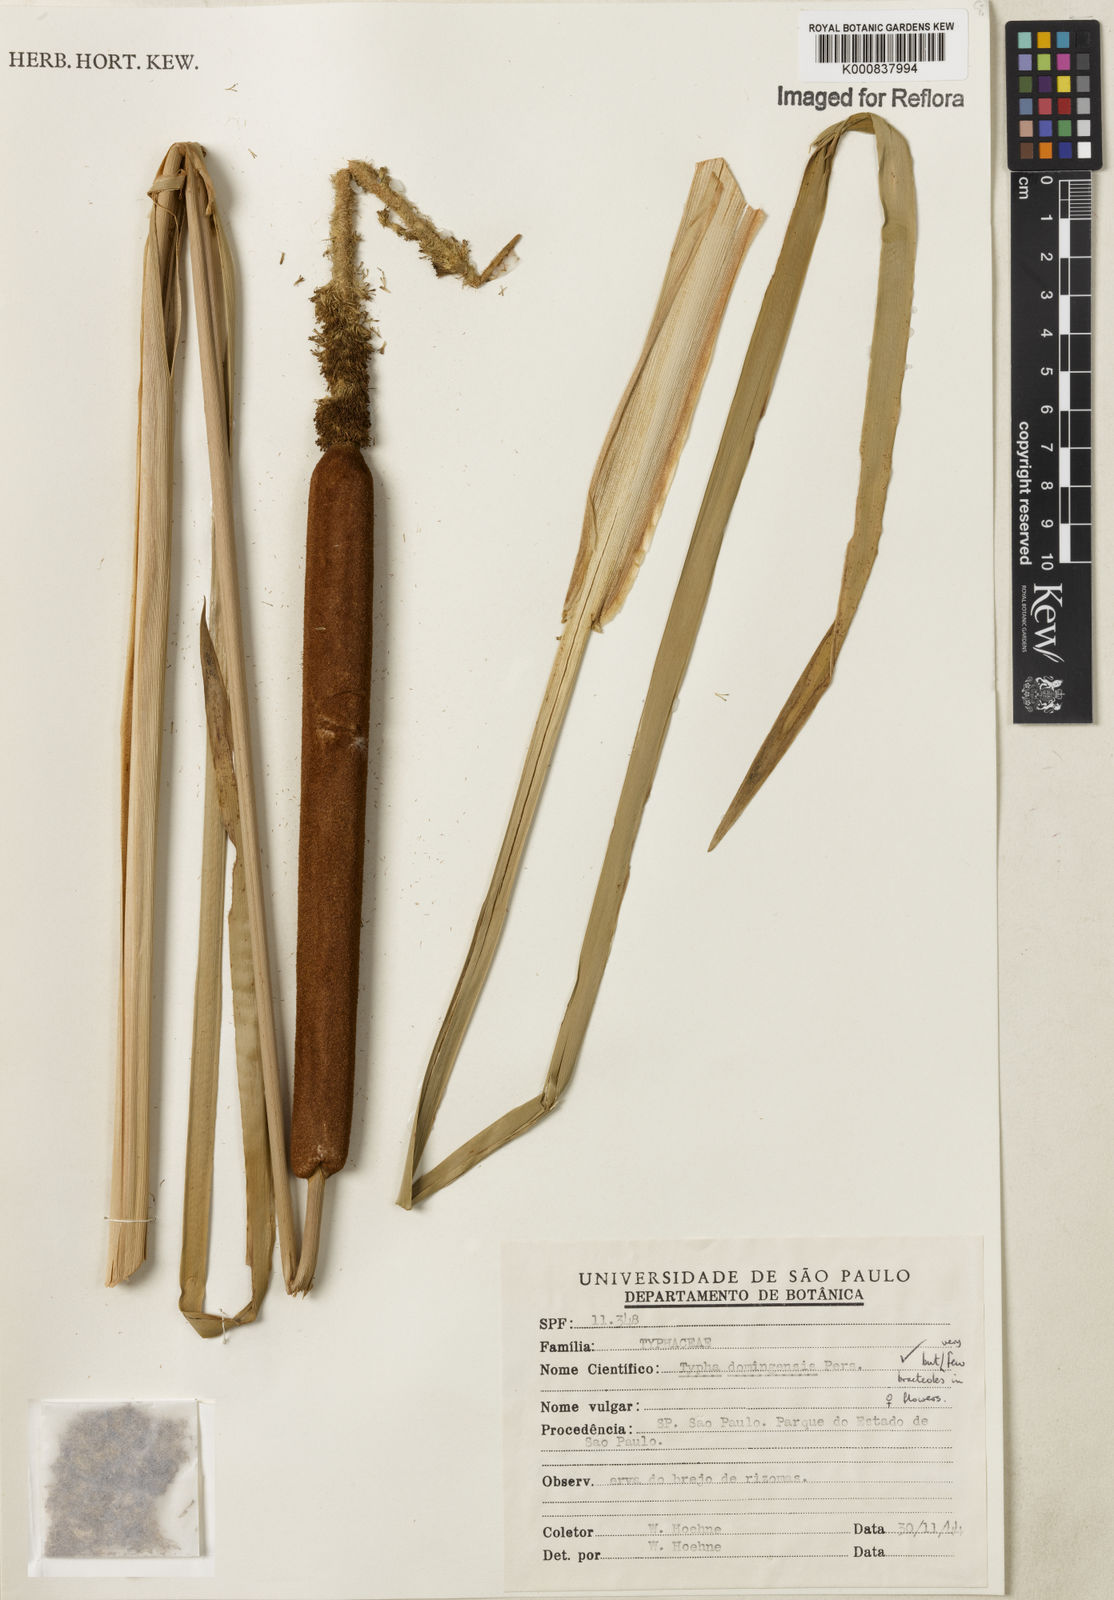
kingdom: Plantae
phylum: Tracheophyta
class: Liliopsida
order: Poales
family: Typhaceae
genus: Typha
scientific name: Typha
